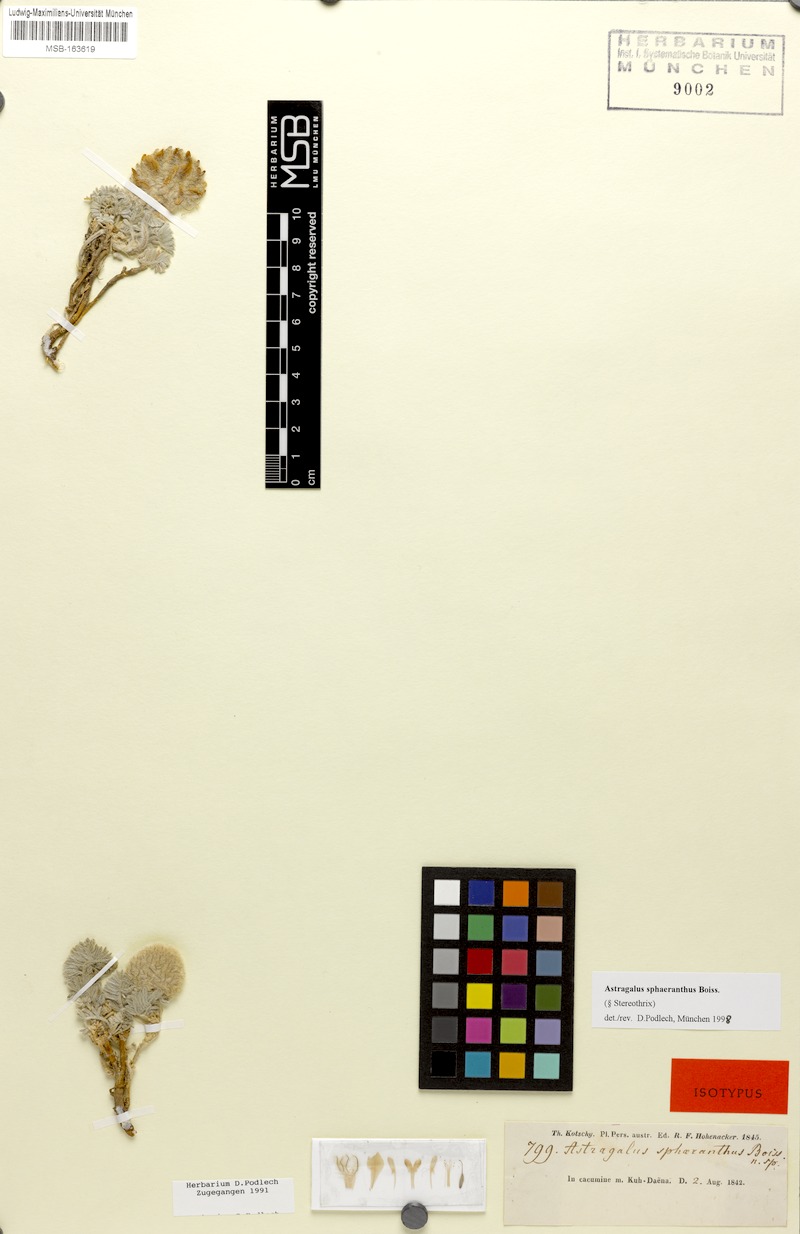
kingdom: Plantae
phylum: Tracheophyta
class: Magnoliopsida
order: Fabales
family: Fabaceae
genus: Astragalus
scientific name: Astragalus sphaeranthus
